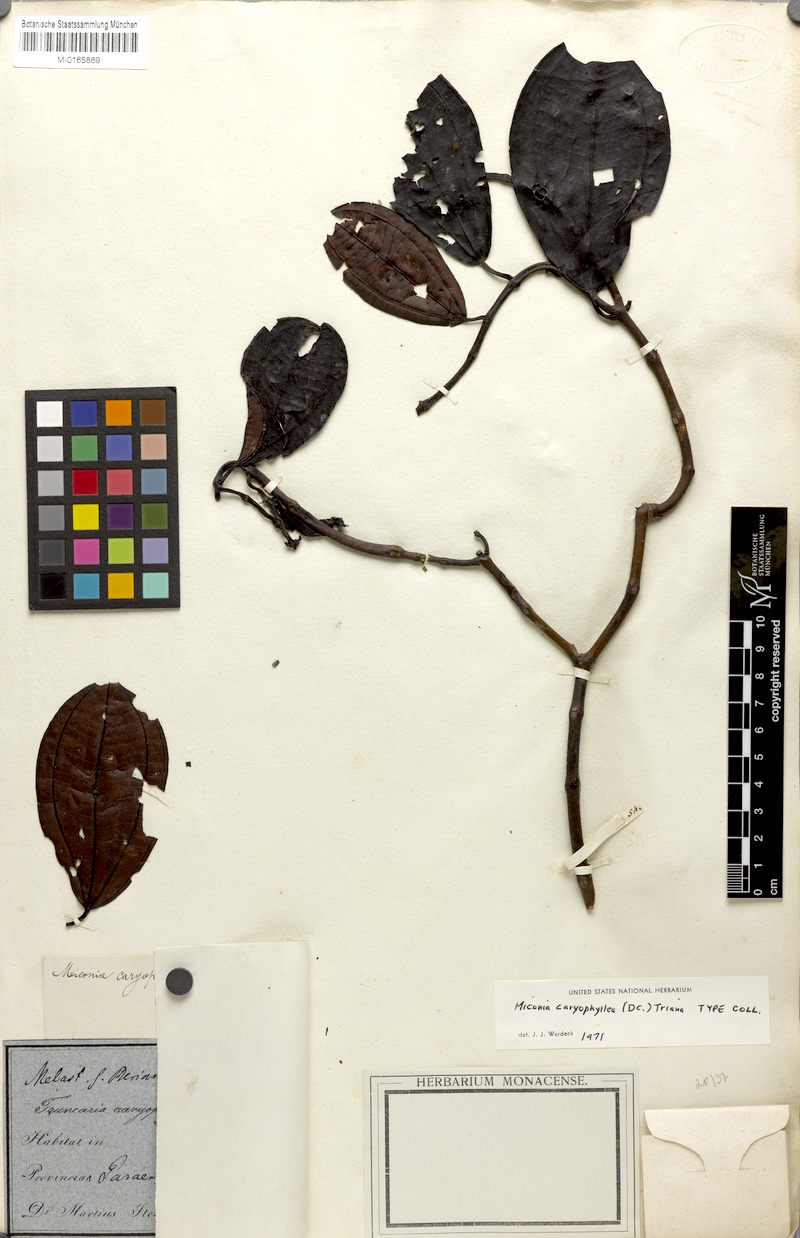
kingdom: Plantae
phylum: Tracheophyta
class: Magnoliopsida
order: Myrtales
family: Melastomataceae
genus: Miconia
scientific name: Miconia caryophyllacea
